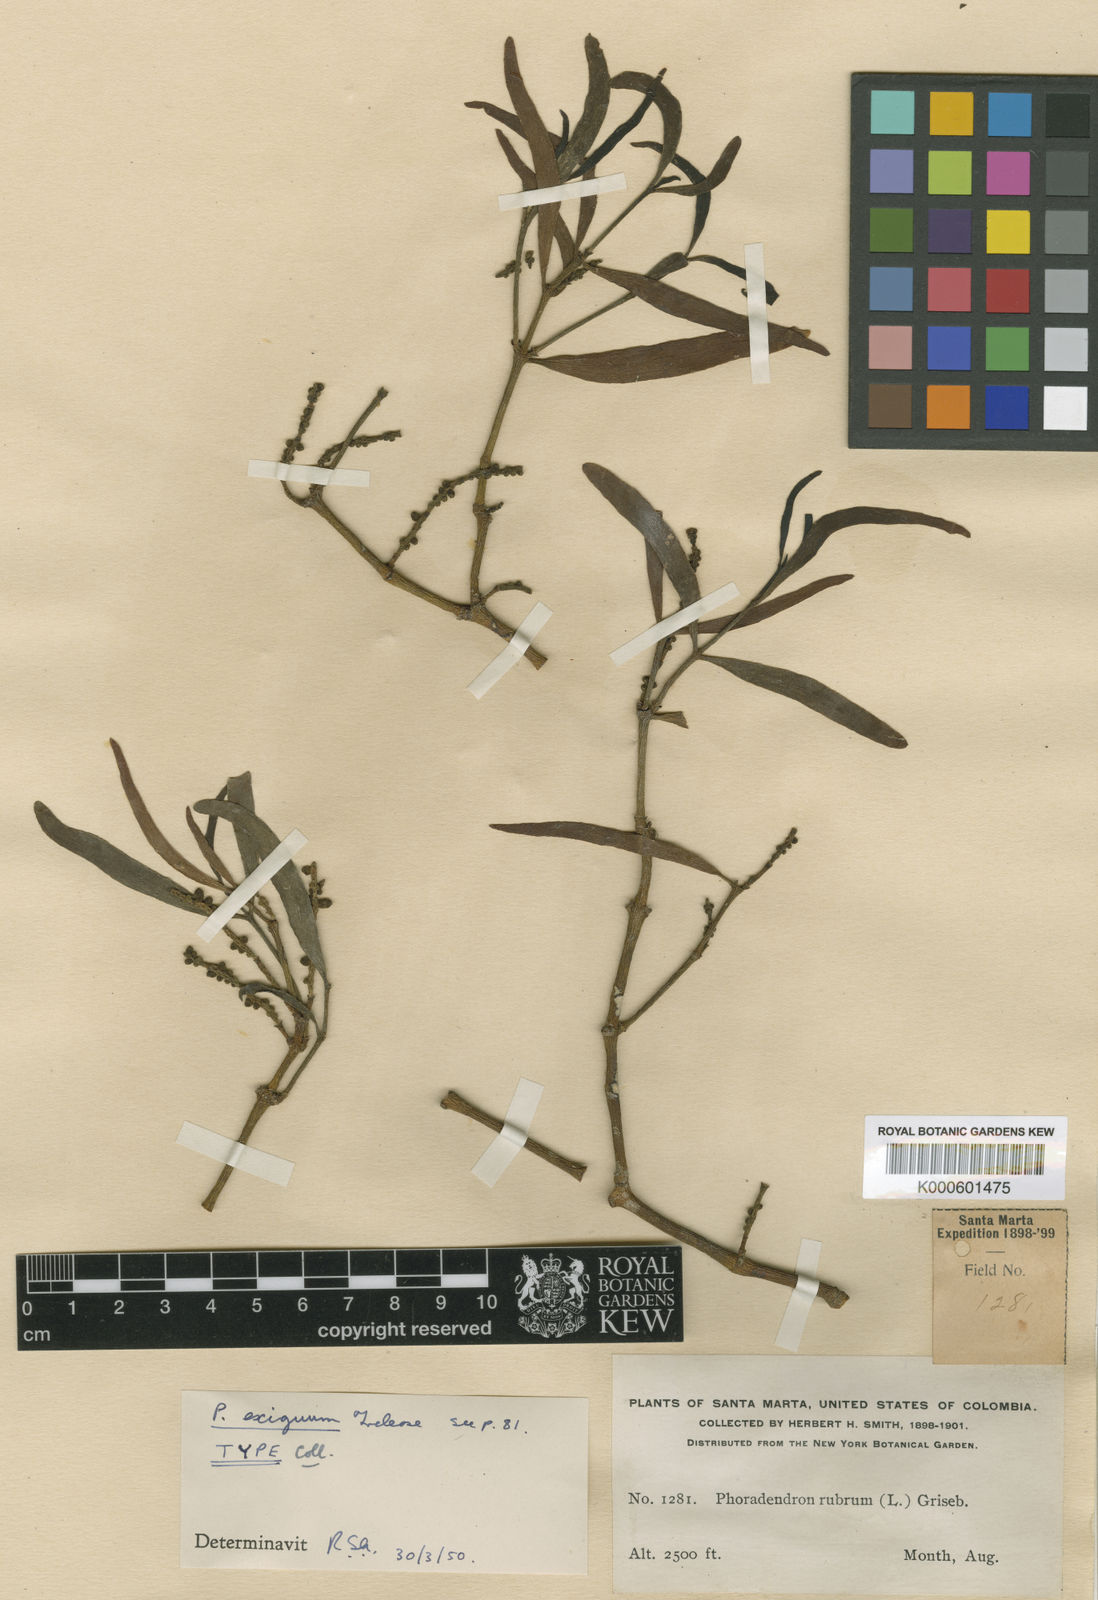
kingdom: Plantae
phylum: Tracheophyta
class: Magnoliopsida
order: Santalales
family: Viscaceae
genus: Phoradendron
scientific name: Phoradendron exiguum
